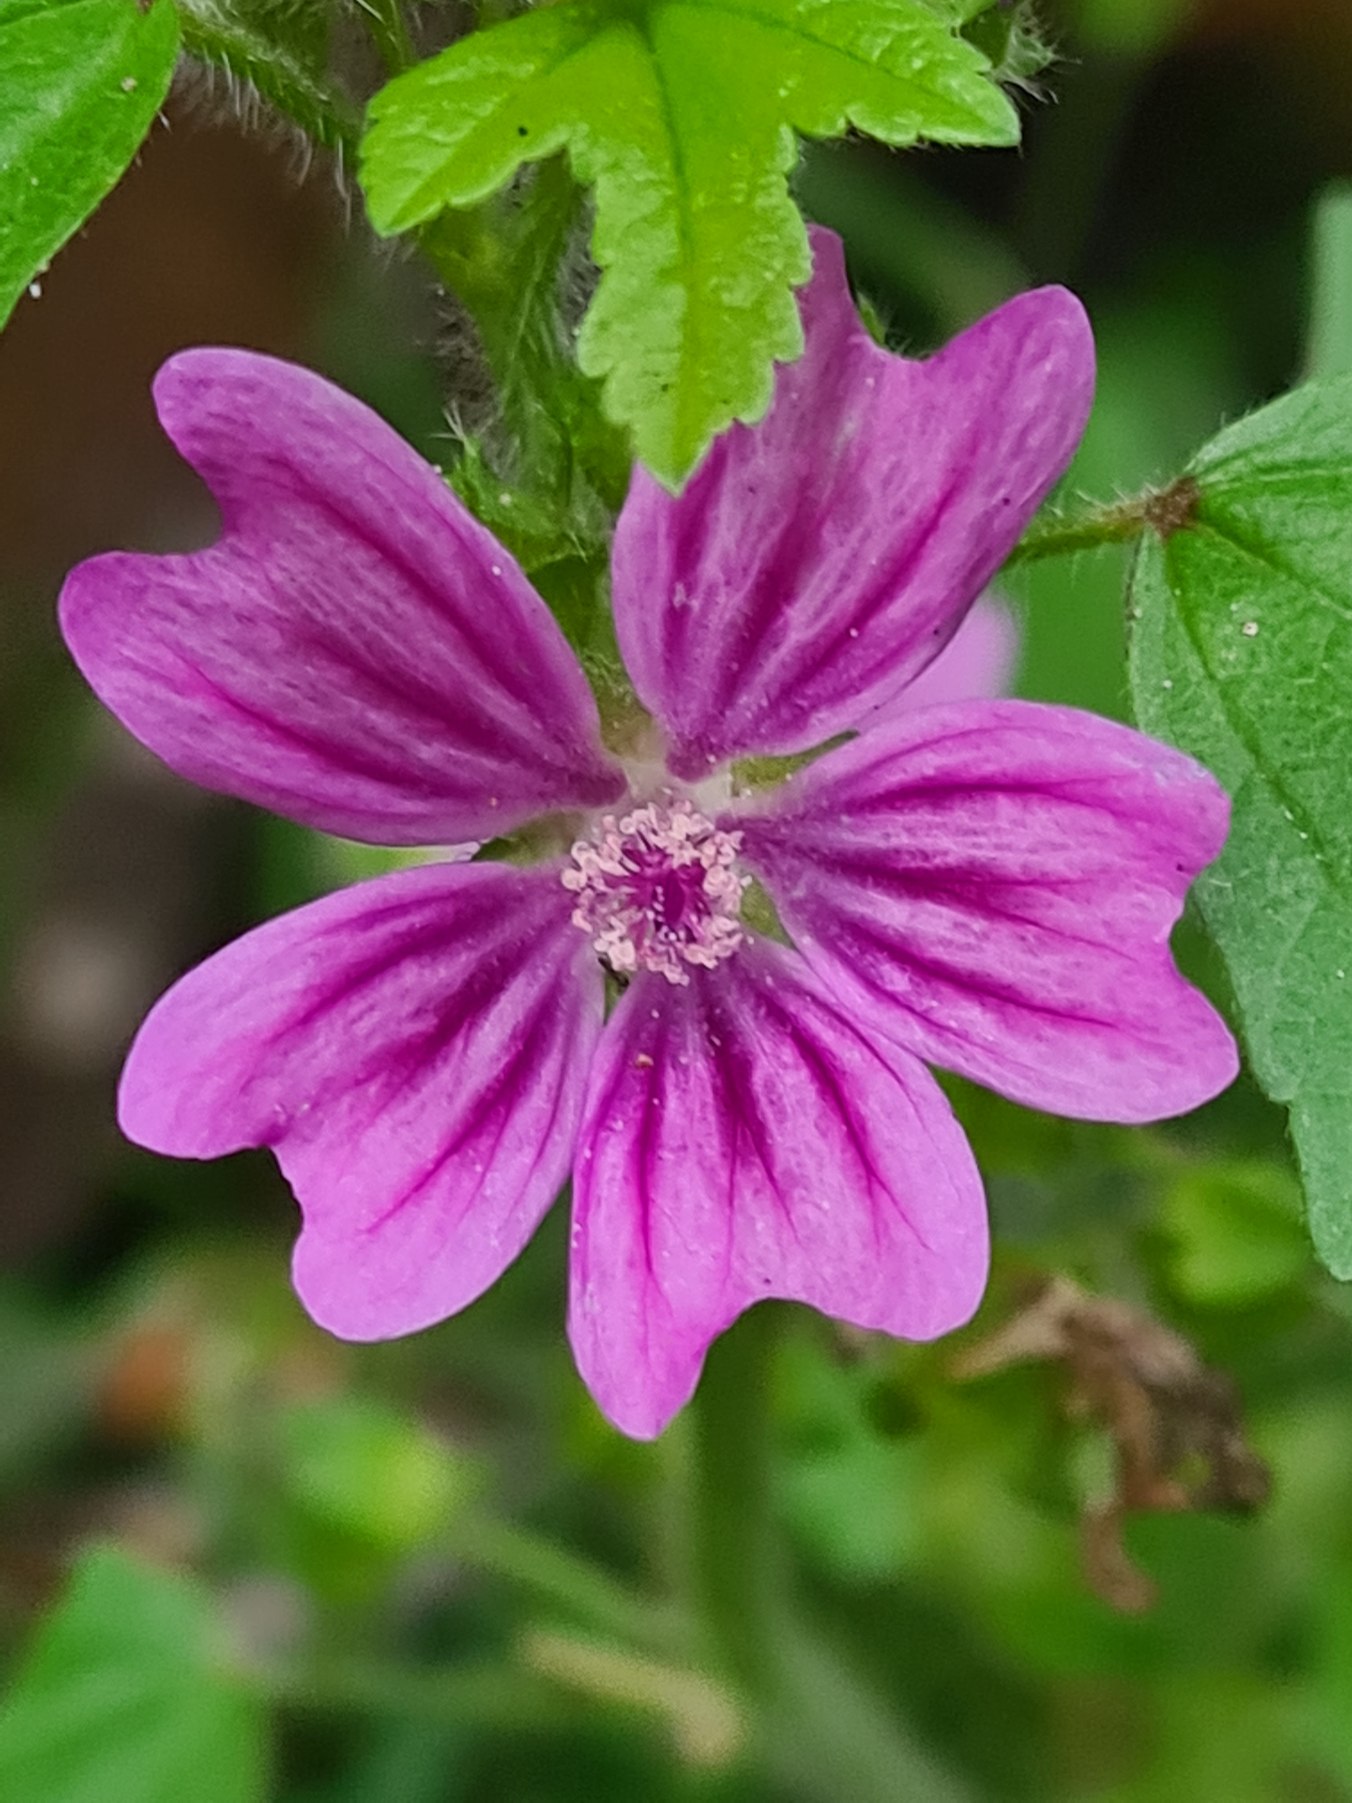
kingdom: Plantae
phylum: Tracheophyta
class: Magnoliopsida
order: Malvales
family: Malvaceae
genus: Malva
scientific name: Malva sylvestris
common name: Almindelig katost
